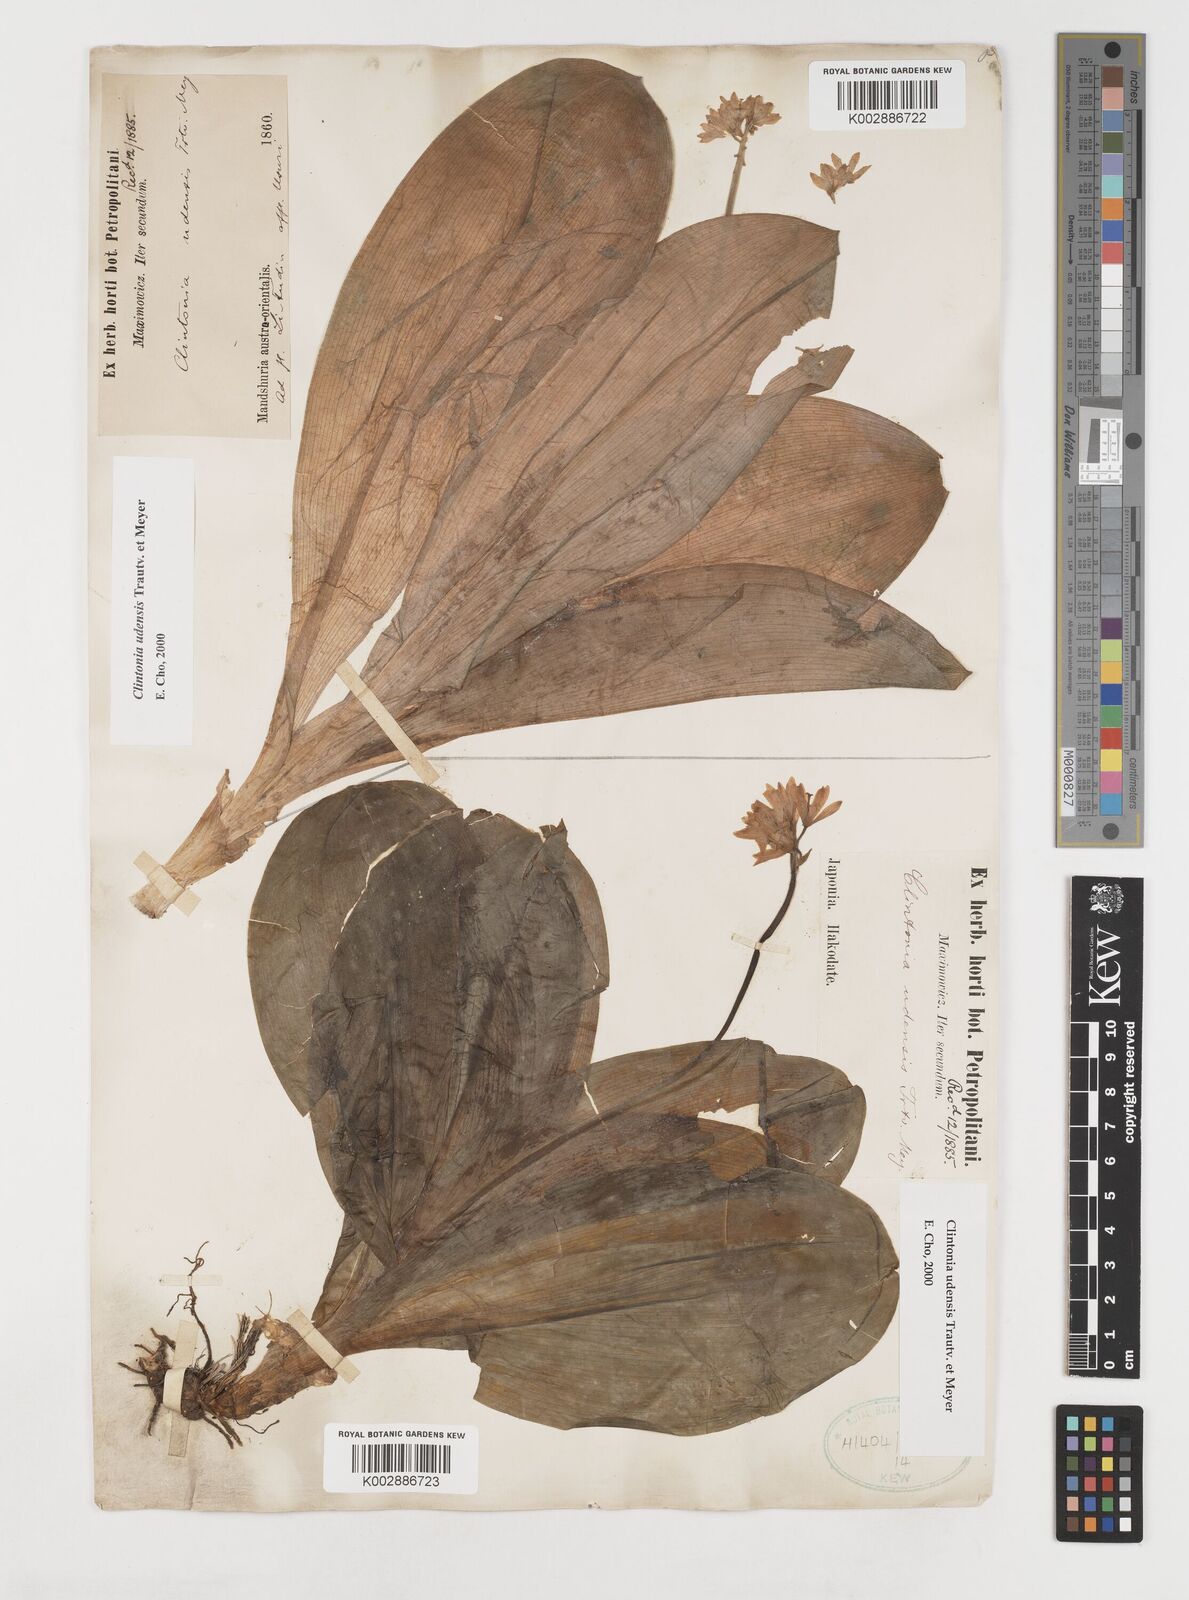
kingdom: Plantae
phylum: Tracheophyta
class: Liliopsida
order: Liliales
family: Liliaceae
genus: Clintonia
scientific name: Clintonia udensis
